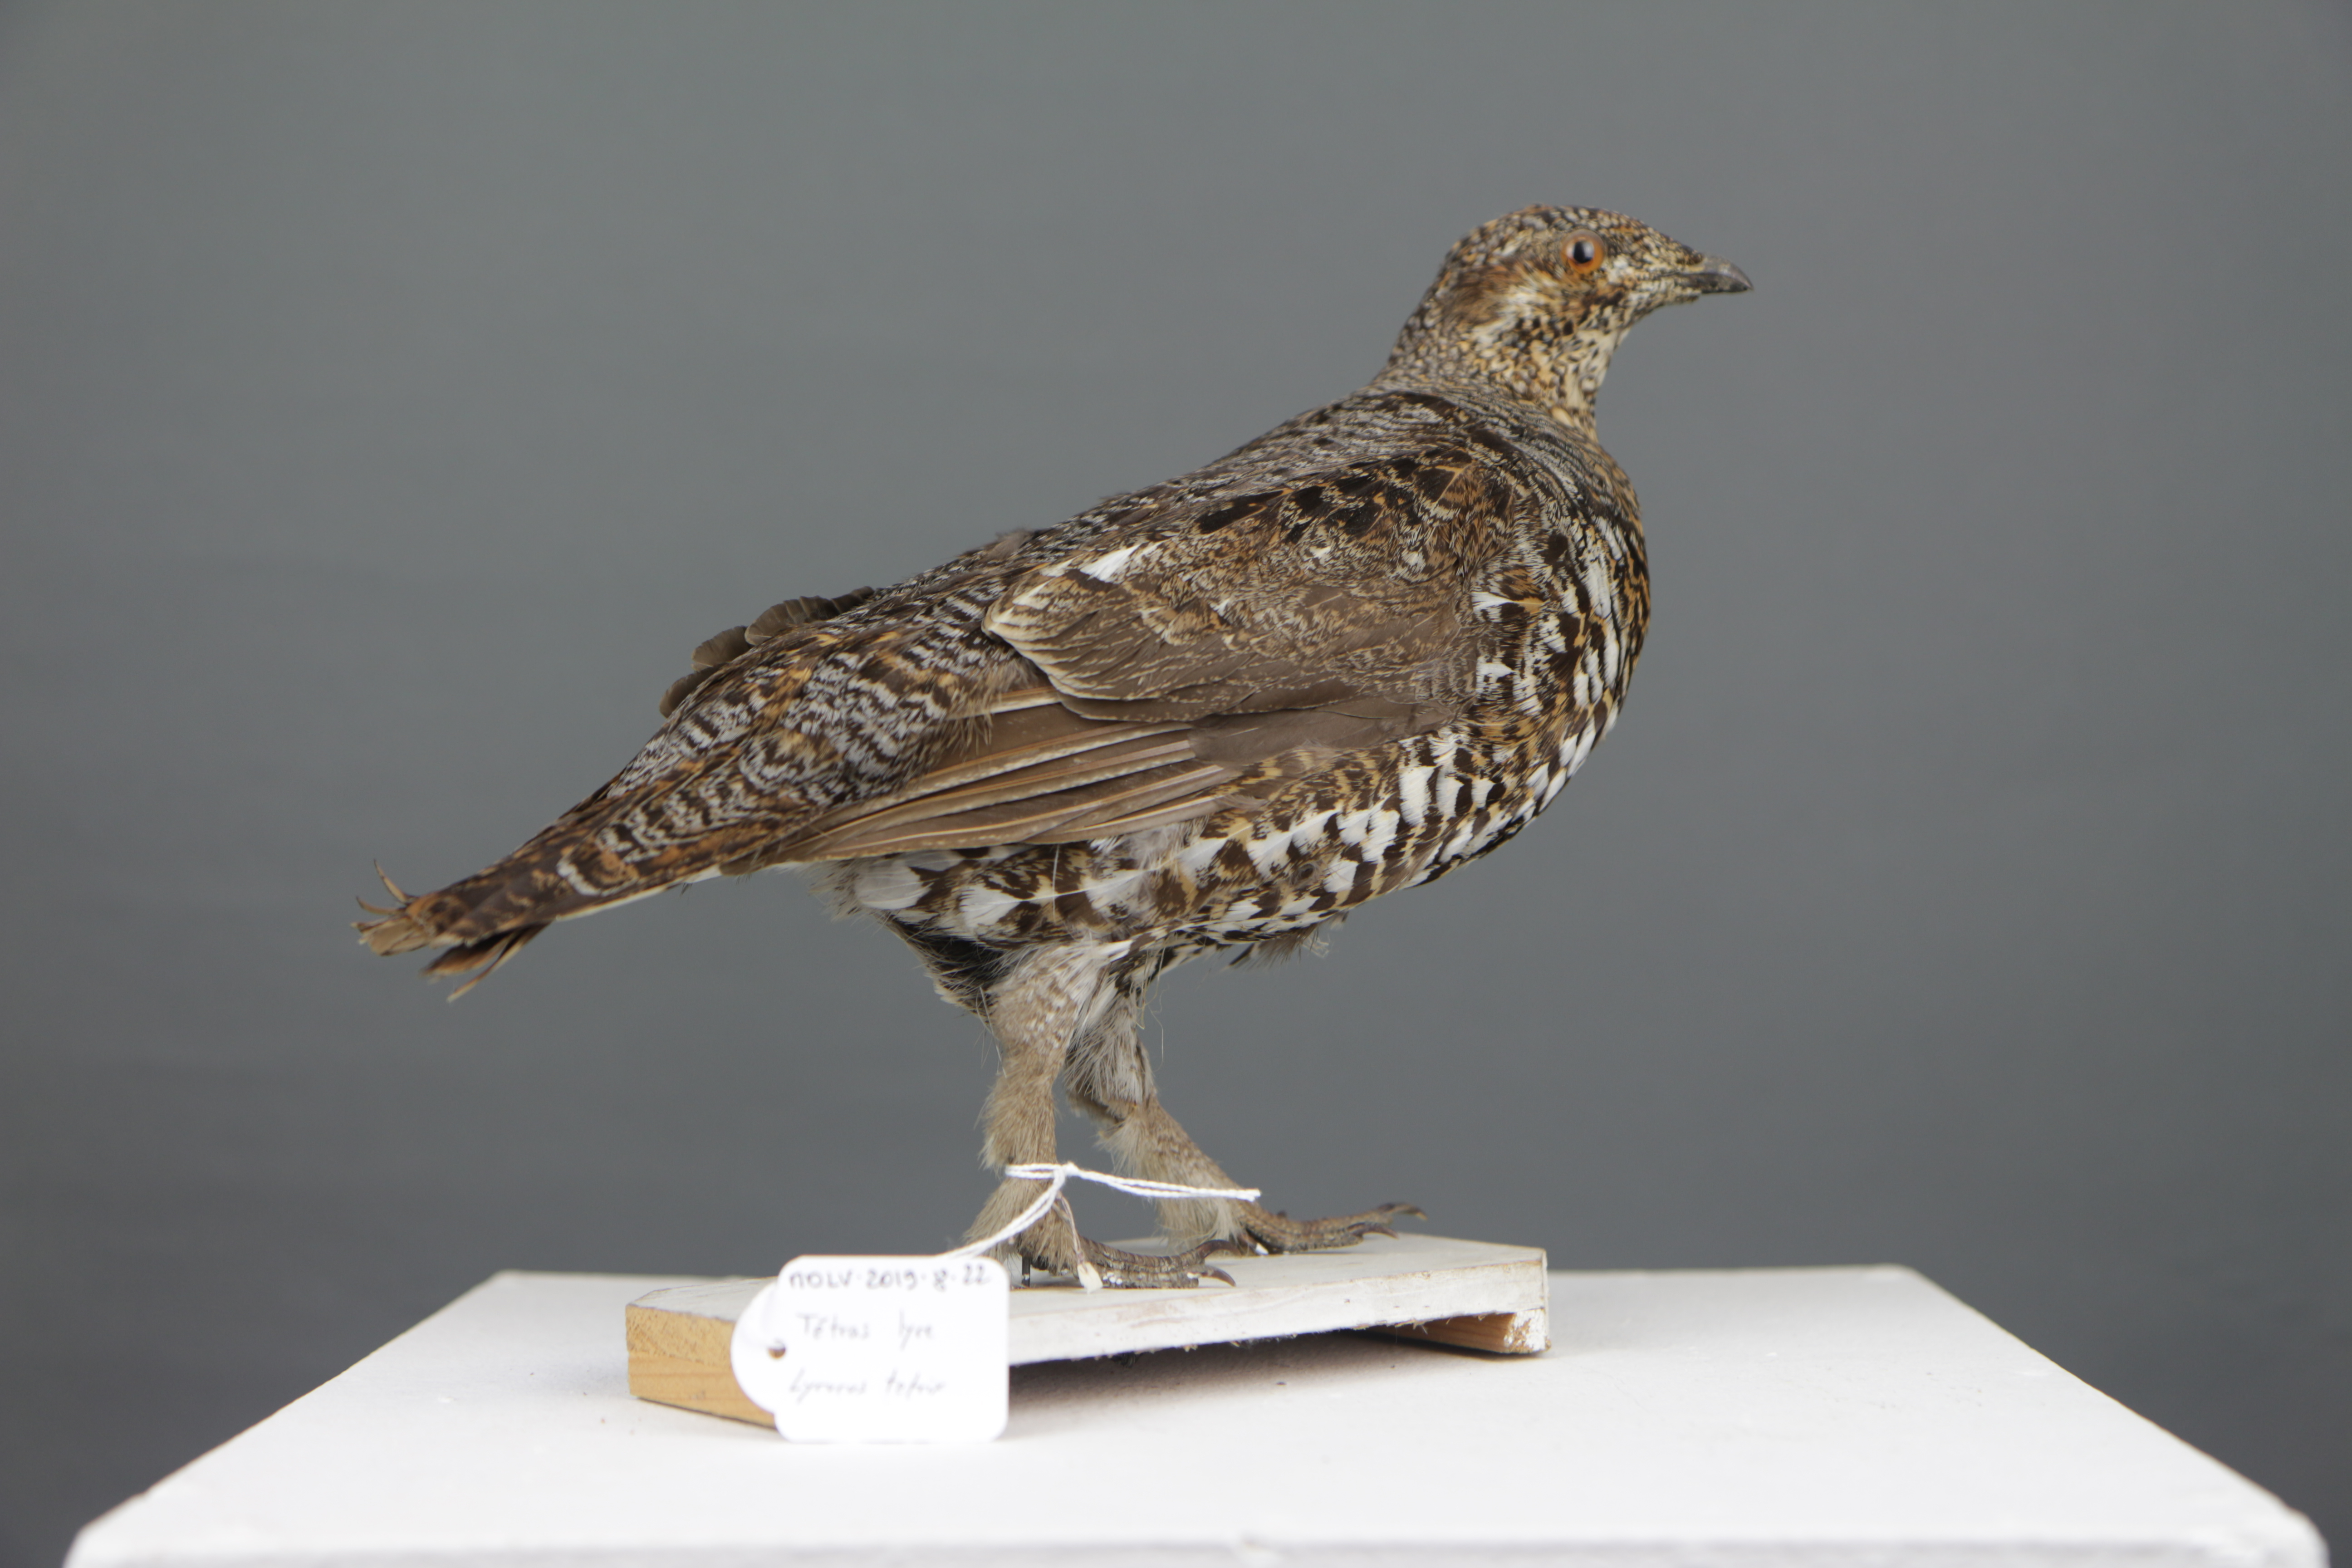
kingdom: Animalia
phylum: Chordata
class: Aves
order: Galliformes
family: Phasianidae
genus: Lyrurus
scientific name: Lyrurus tetrix
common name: Black grouse
